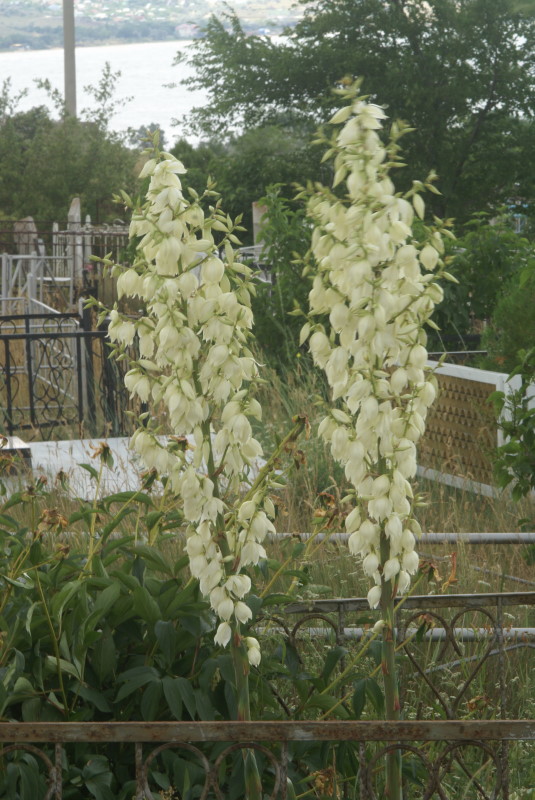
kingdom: Plantae
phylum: Tracheophyta
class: Liliopsida
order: Asparagales
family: Asparagaceae
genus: Yucca
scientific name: Yucca
